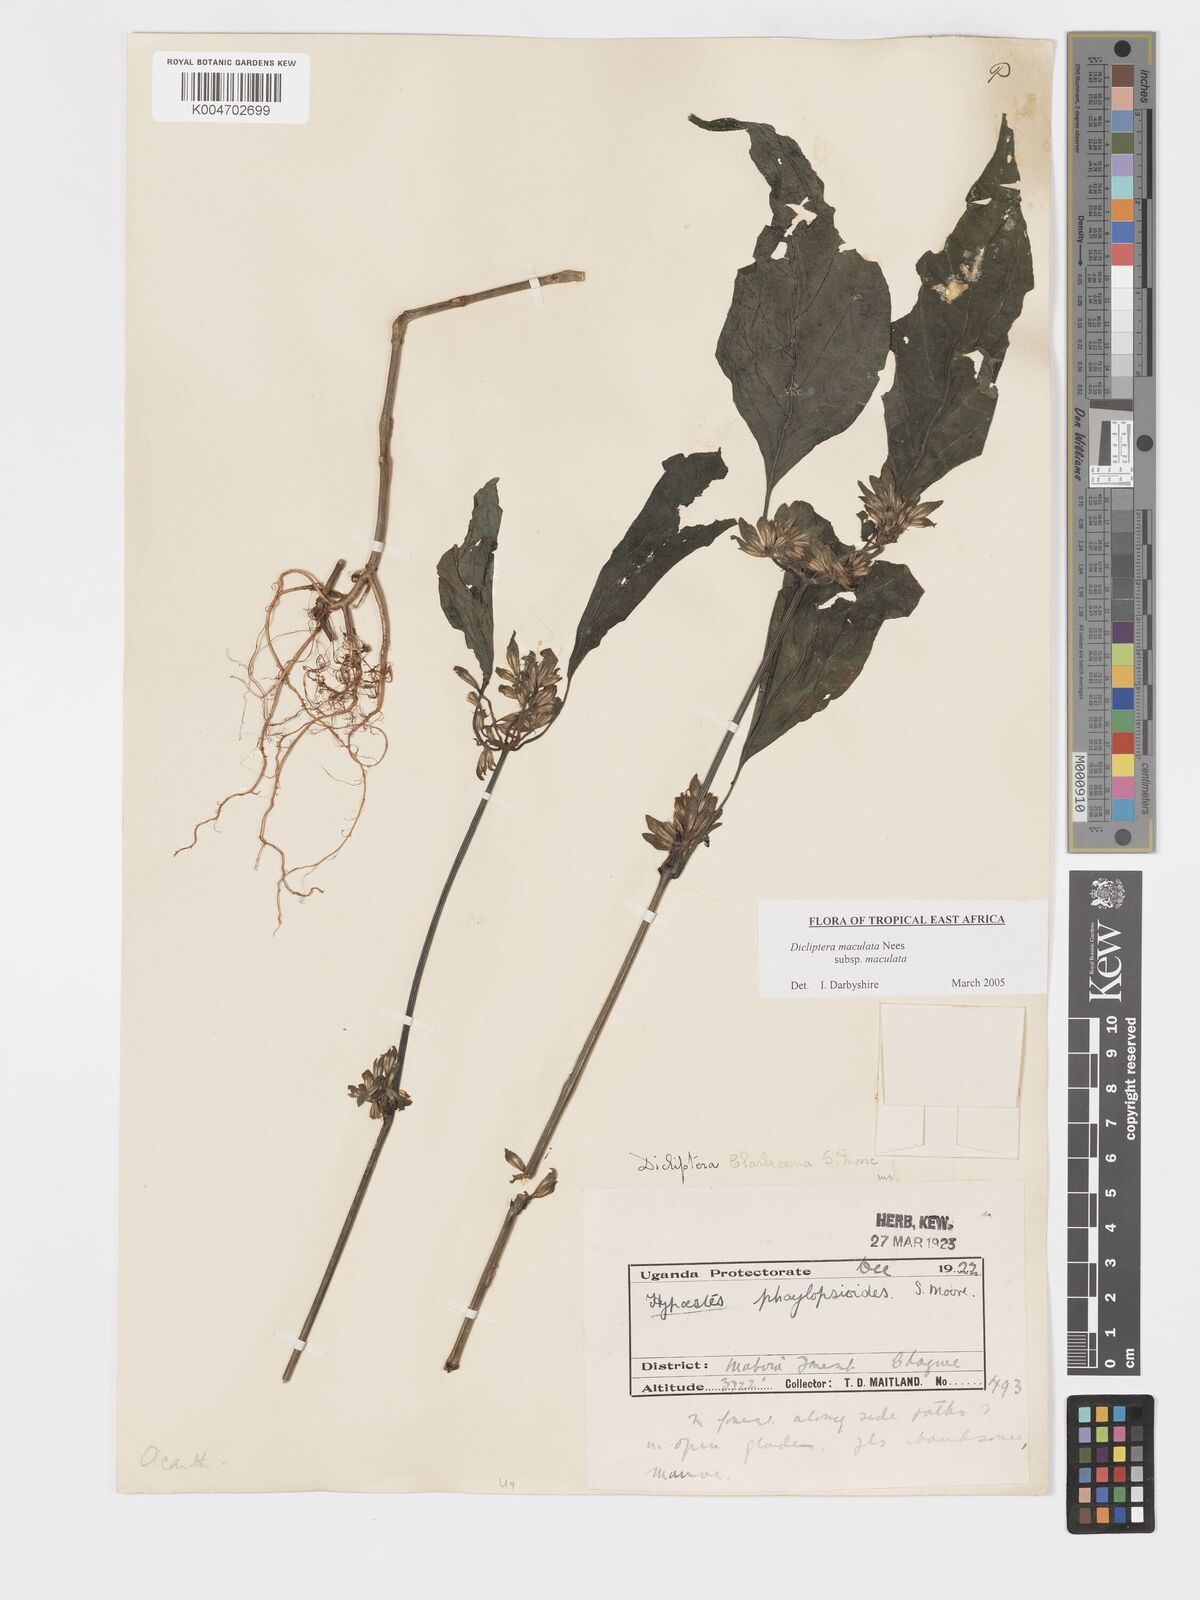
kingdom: Plantae
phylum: Tracheophyta
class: Magnoliopsida
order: Lamiales
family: Acanthaceae
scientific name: Acanthaceae
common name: Acanthaceae
